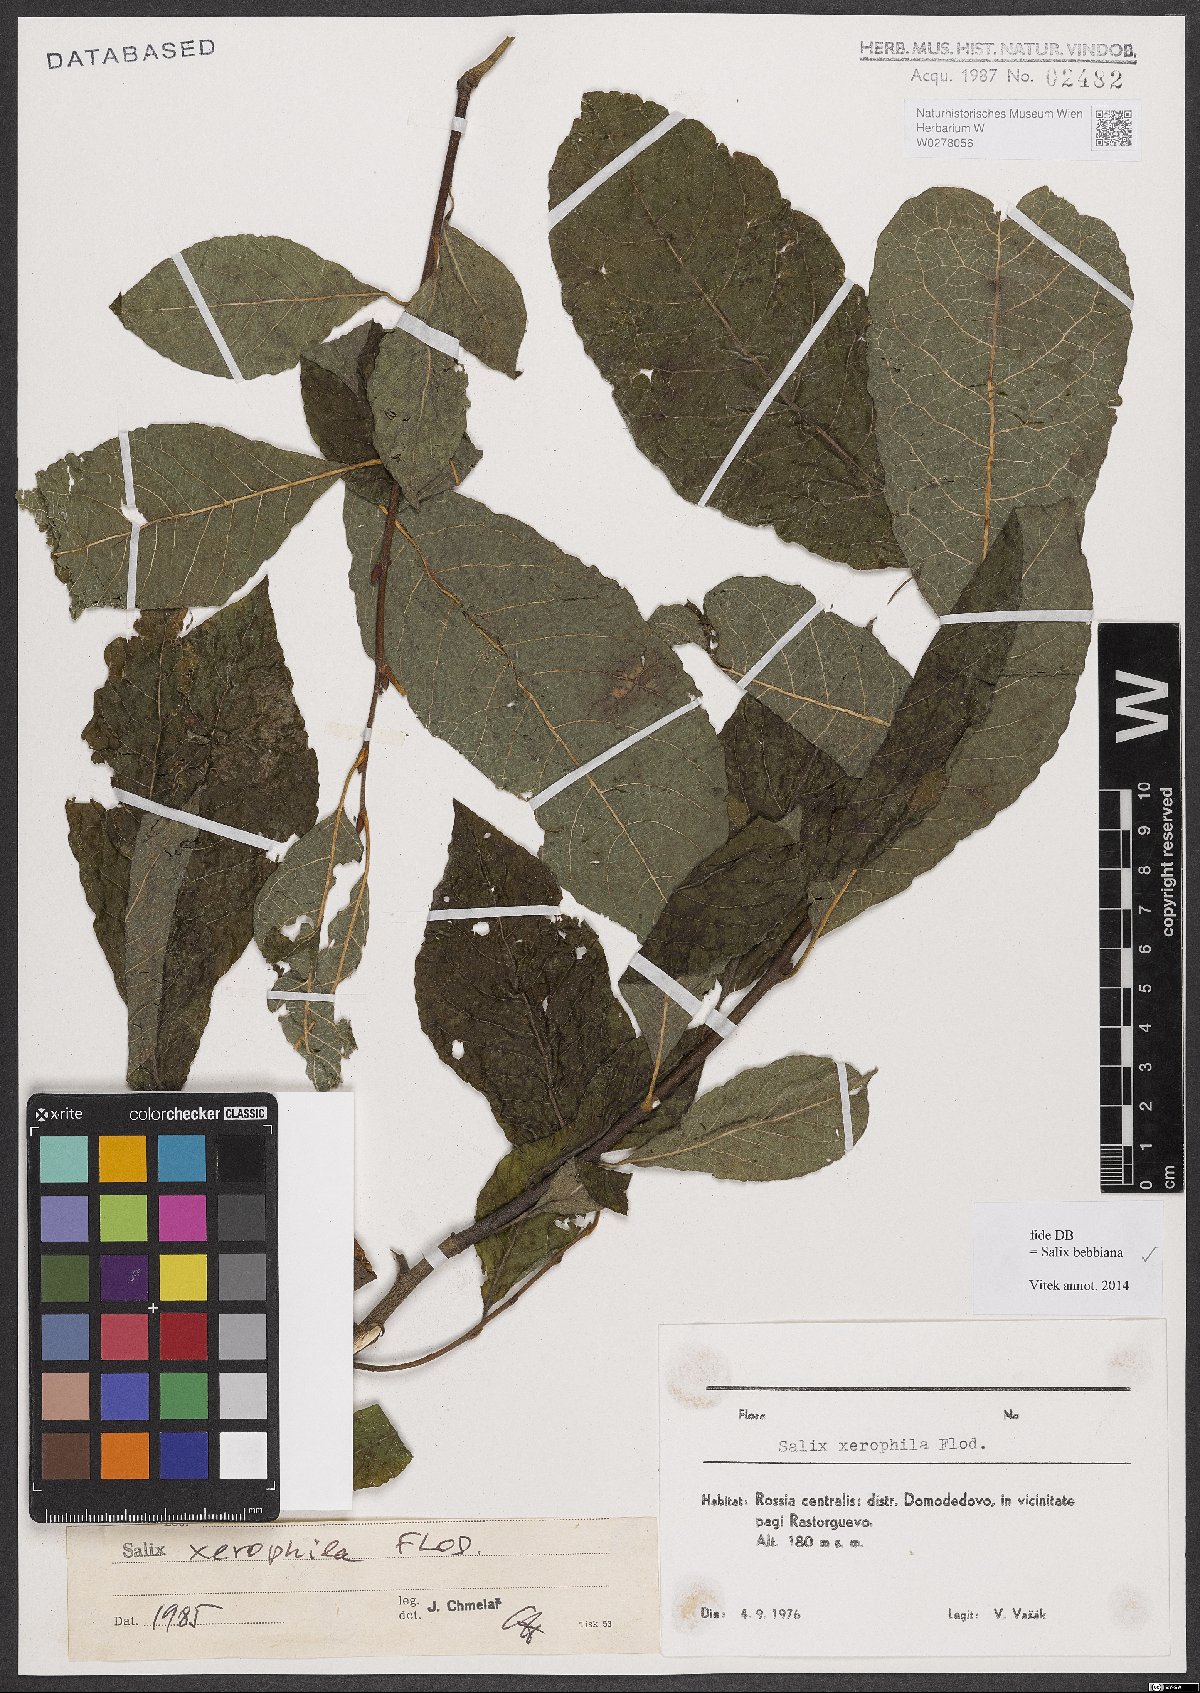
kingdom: Plantae
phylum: Tracheophyta
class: Magnoliopsida
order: Malpighiales
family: Salicaceae
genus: Salix
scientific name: Salix bebbiana
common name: Bebb's willow
